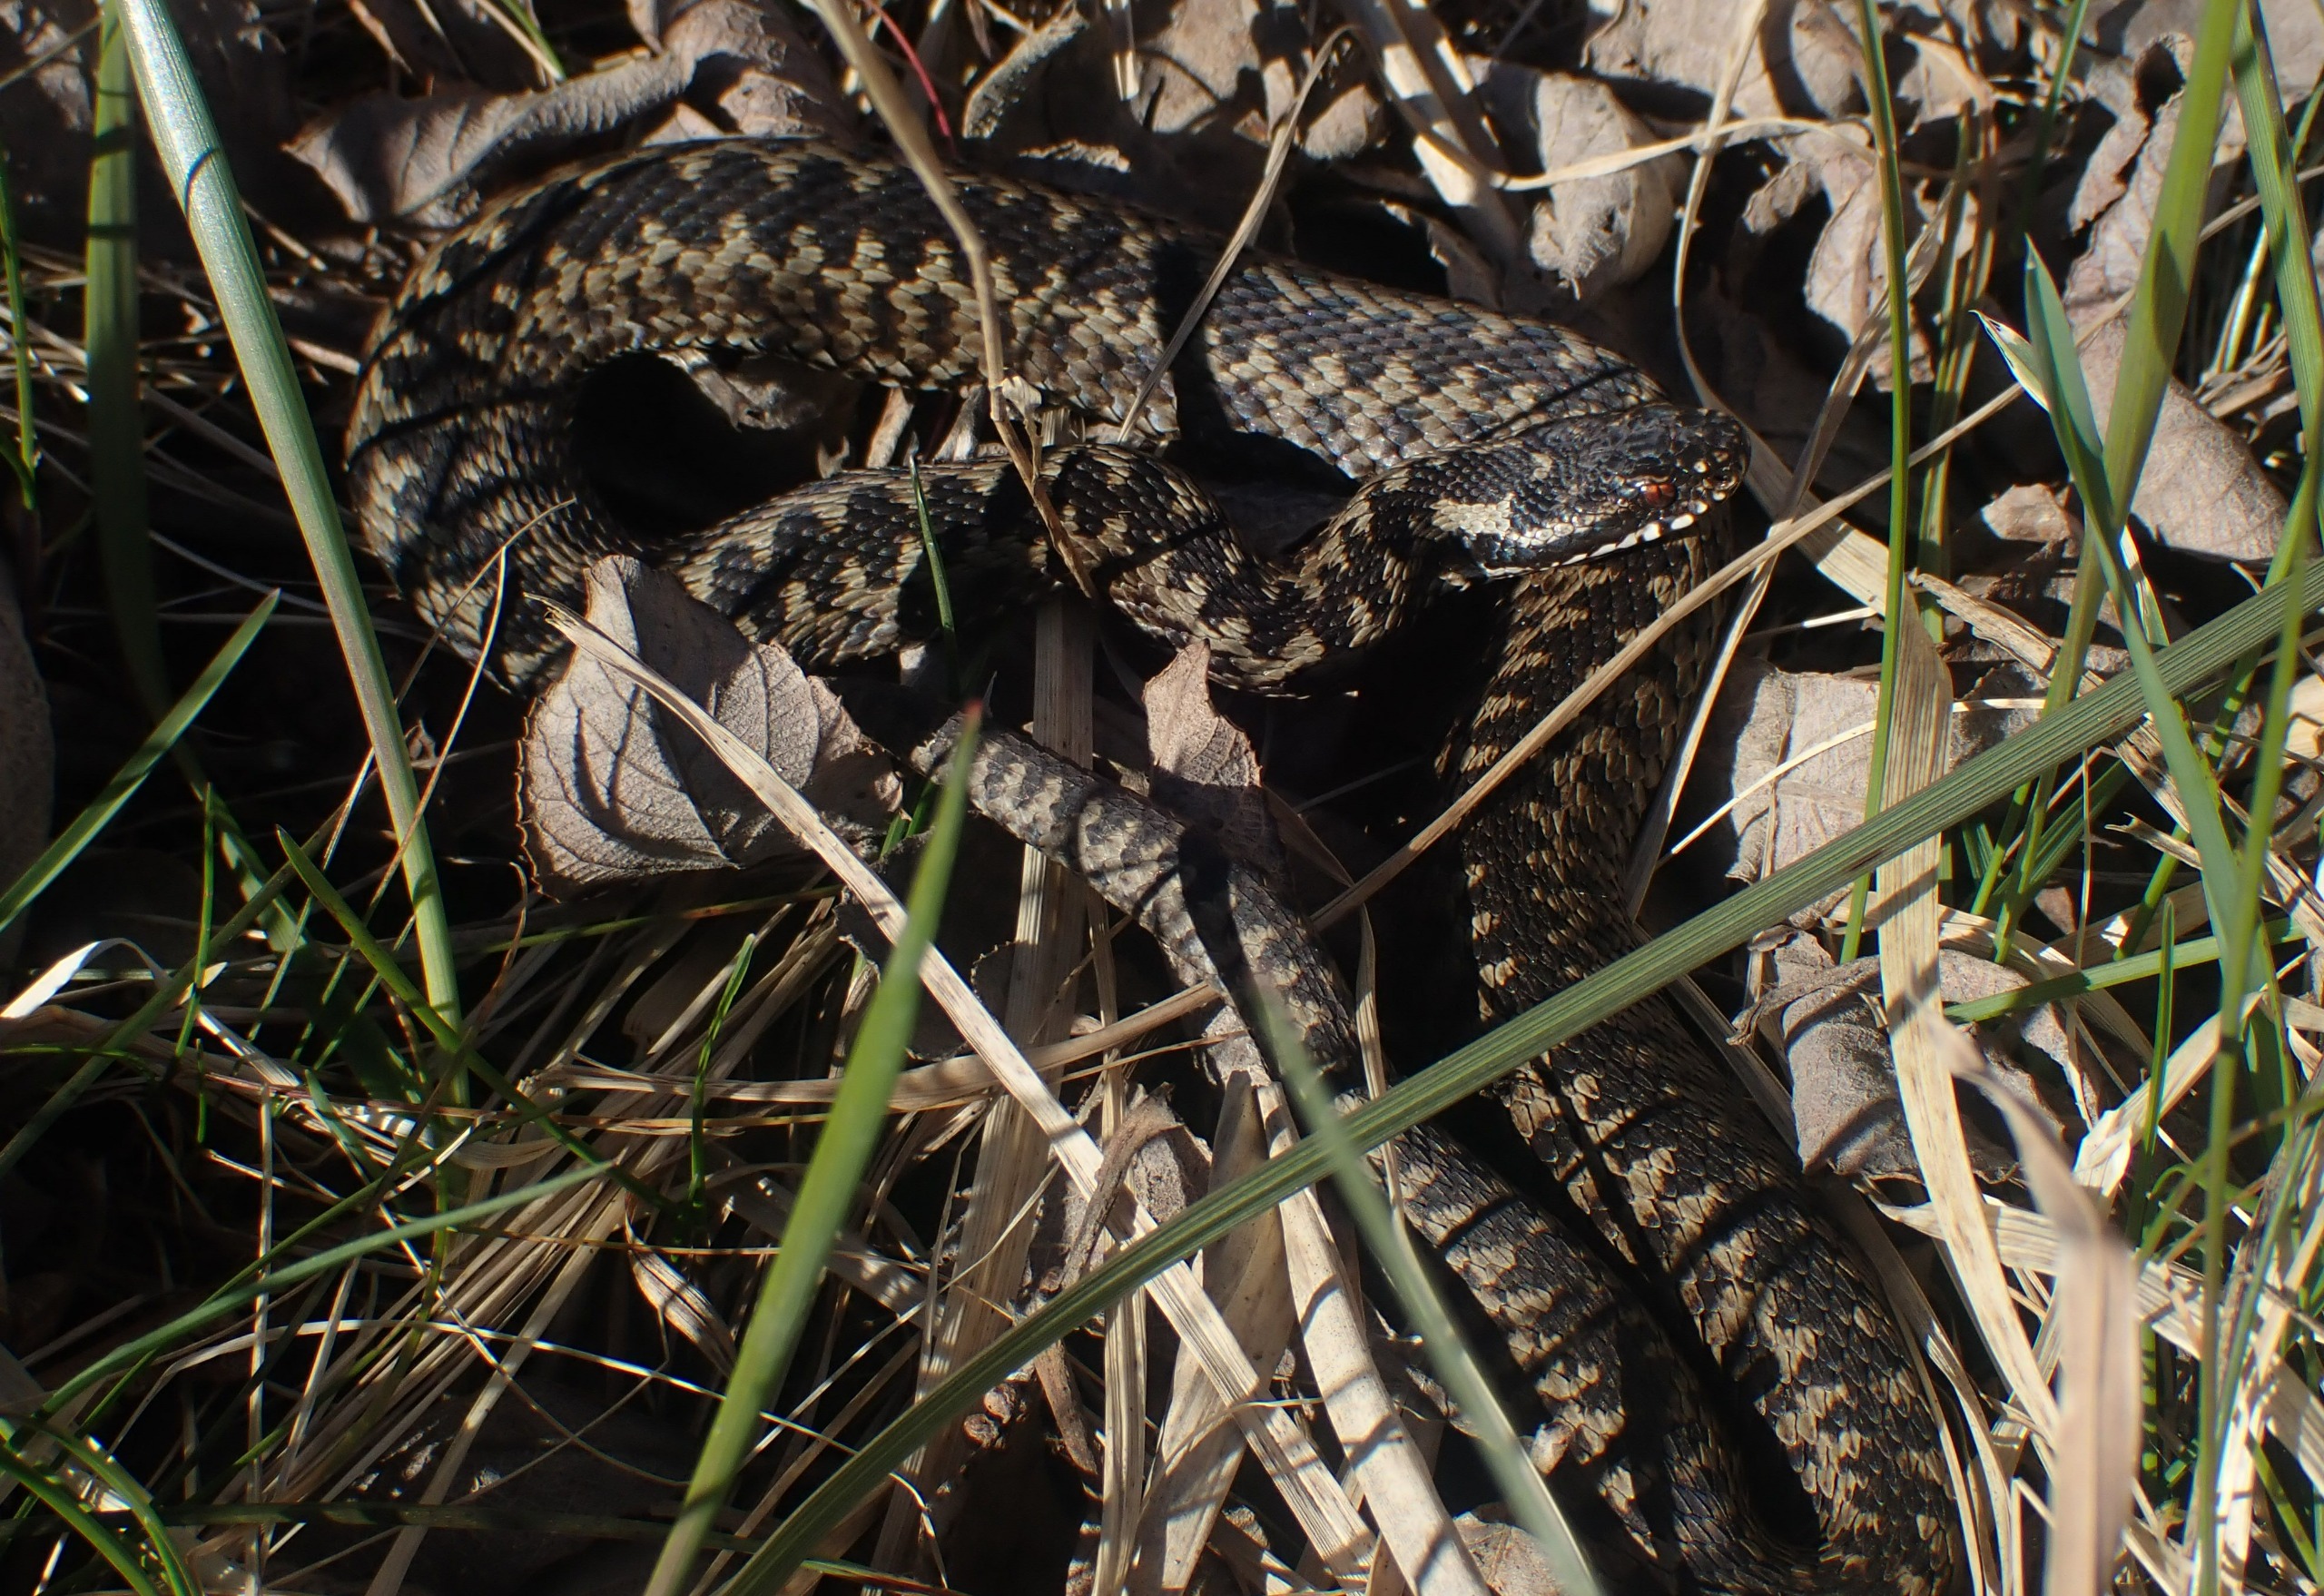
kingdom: Animalia
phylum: Chordata
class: Squamata
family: Viperidae
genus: Vipera
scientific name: Vipera berus
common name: Hugorm
